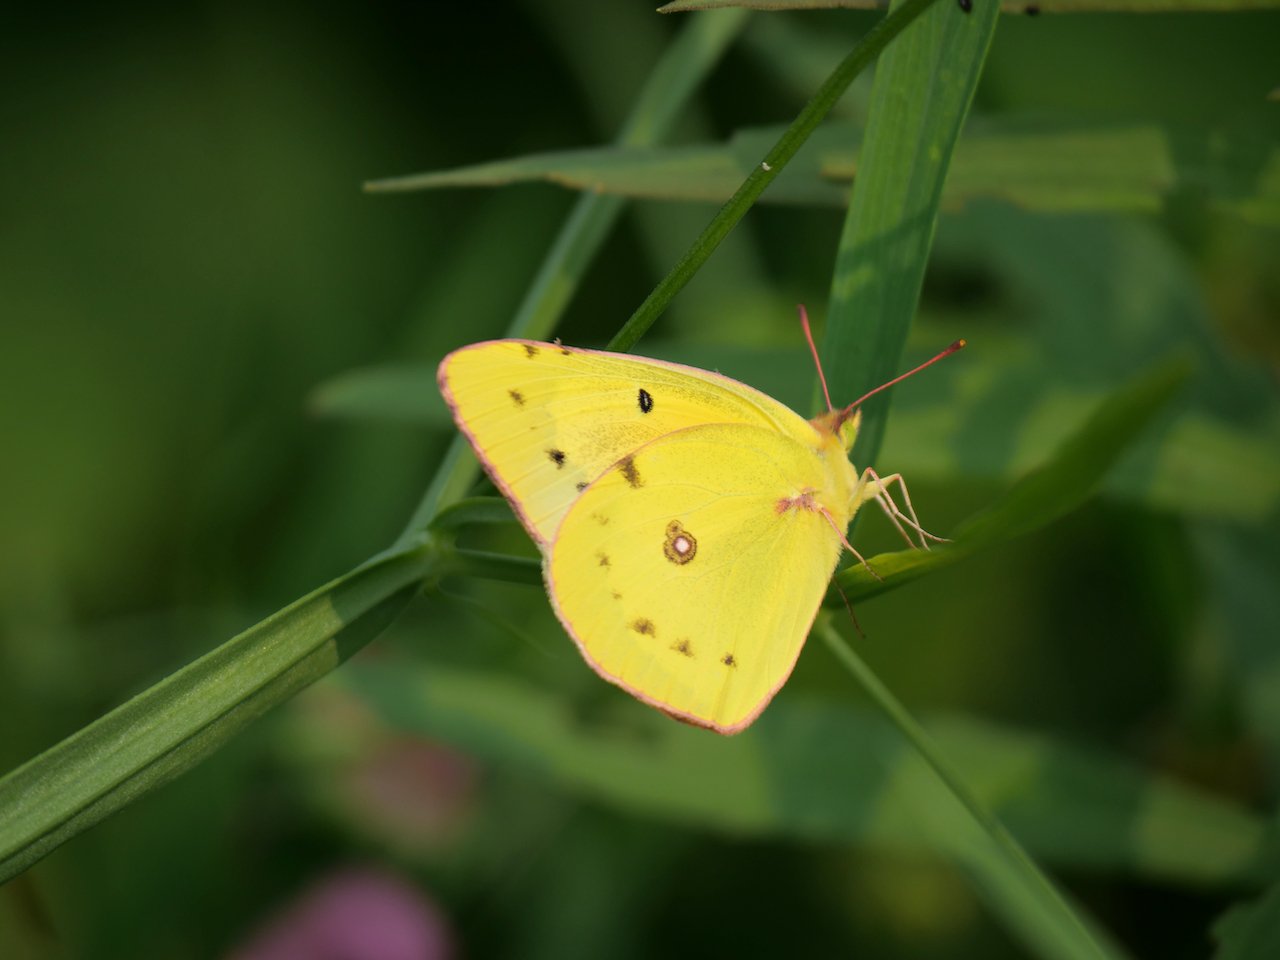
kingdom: Animalia
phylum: Arthropoda
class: Insecta
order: Lepidoptera
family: Pieridae
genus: Colias
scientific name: Colias eurytheme
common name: Orange Sulphur
